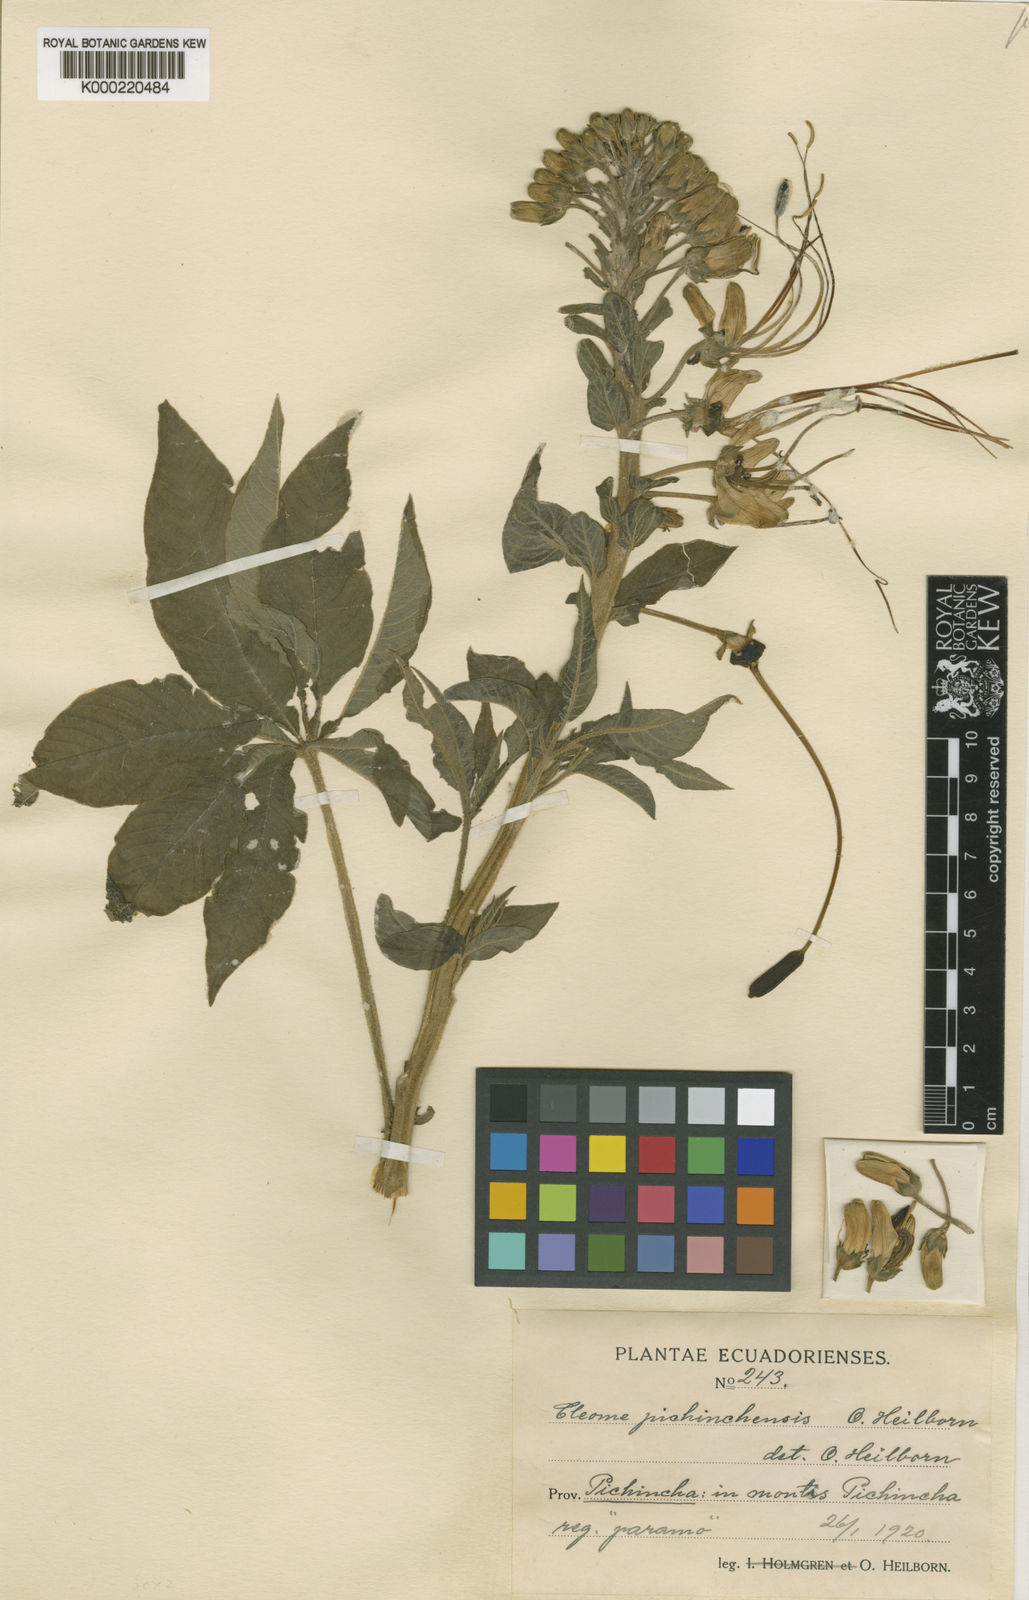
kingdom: Plantae
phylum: Tracheophyta
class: Magnoliopsida
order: Brassicales
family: Cleomaceae
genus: Andinocleome
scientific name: Andinocleome anomala
